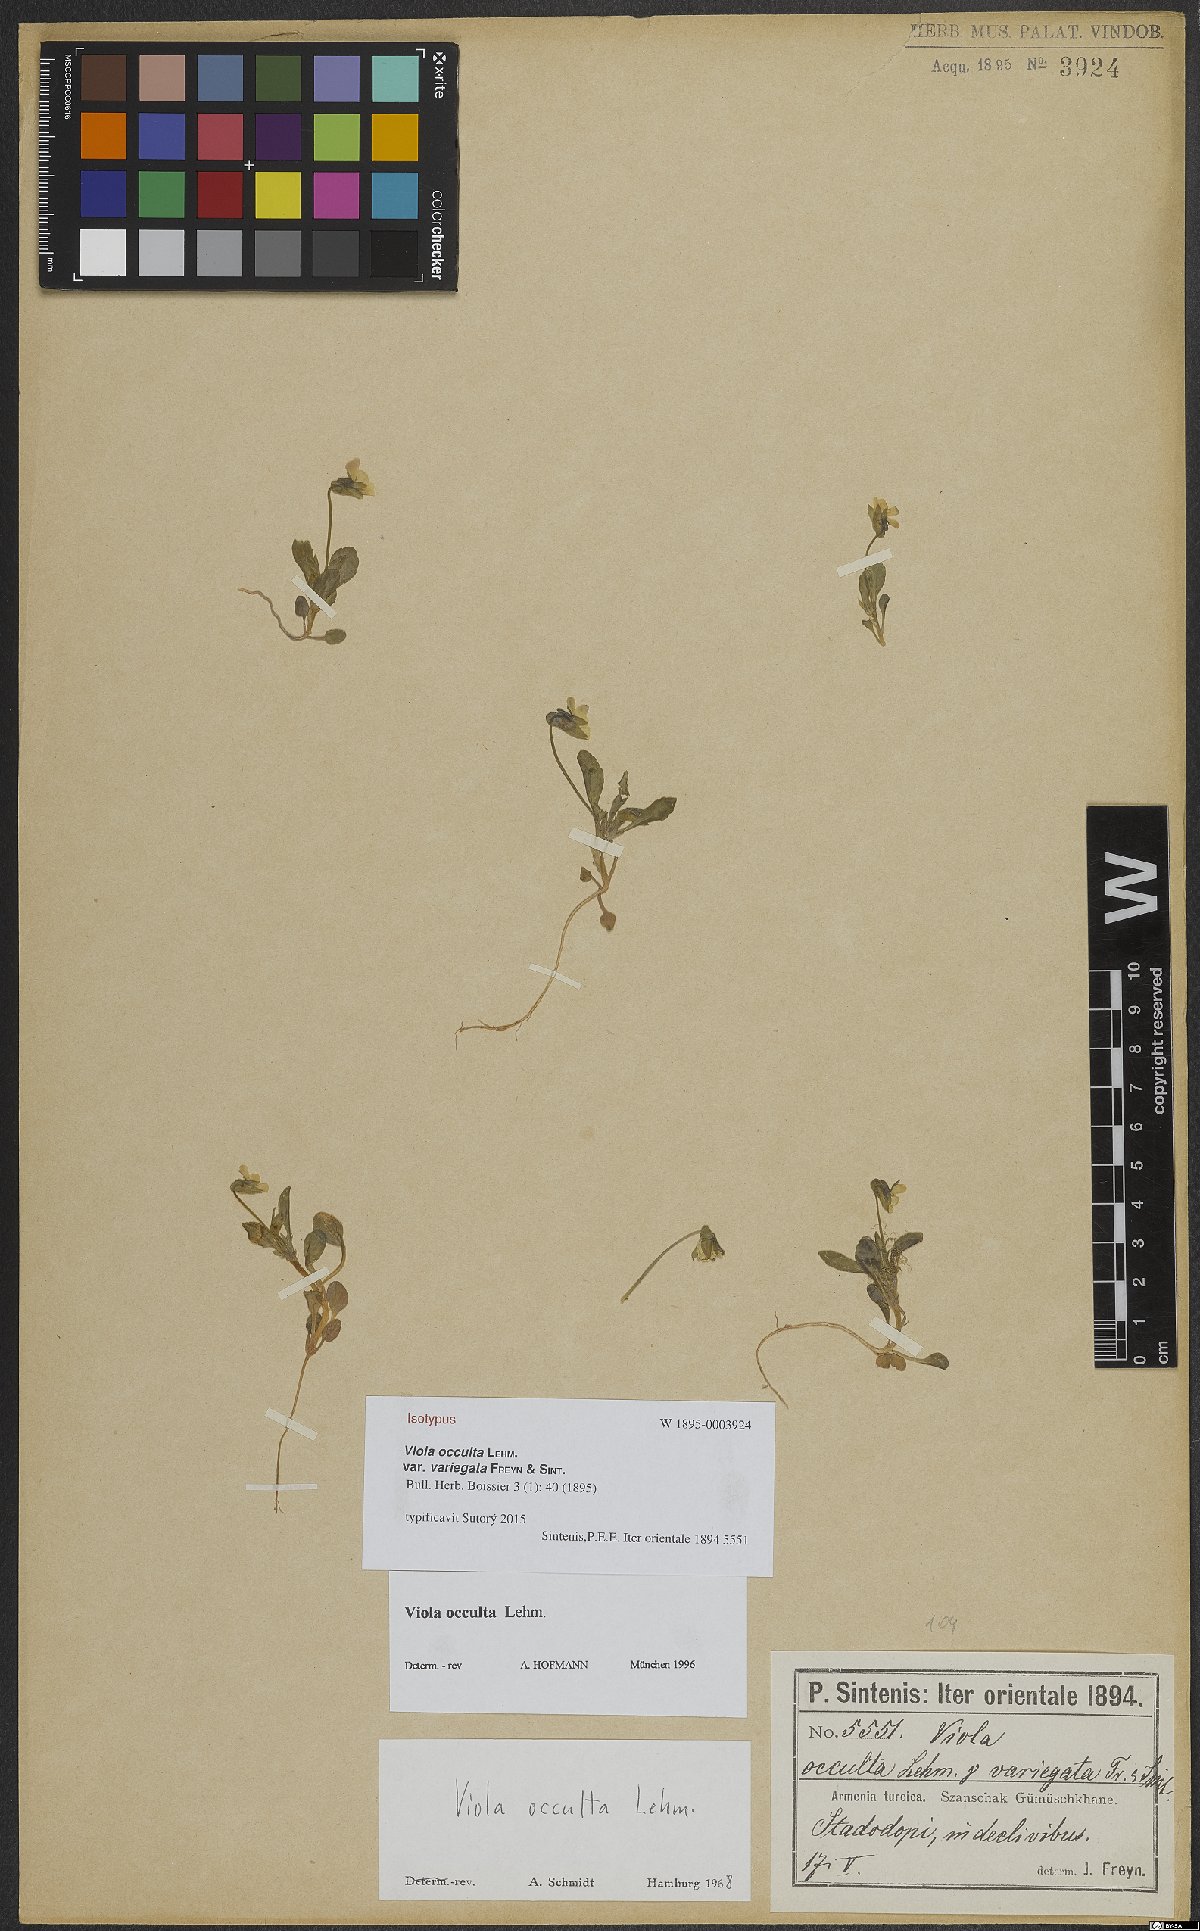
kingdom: Plantae
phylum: Tracheophyta
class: Magnoliopsida
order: Malpighiales
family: Violaceae
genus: Viola
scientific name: Viola occulta
